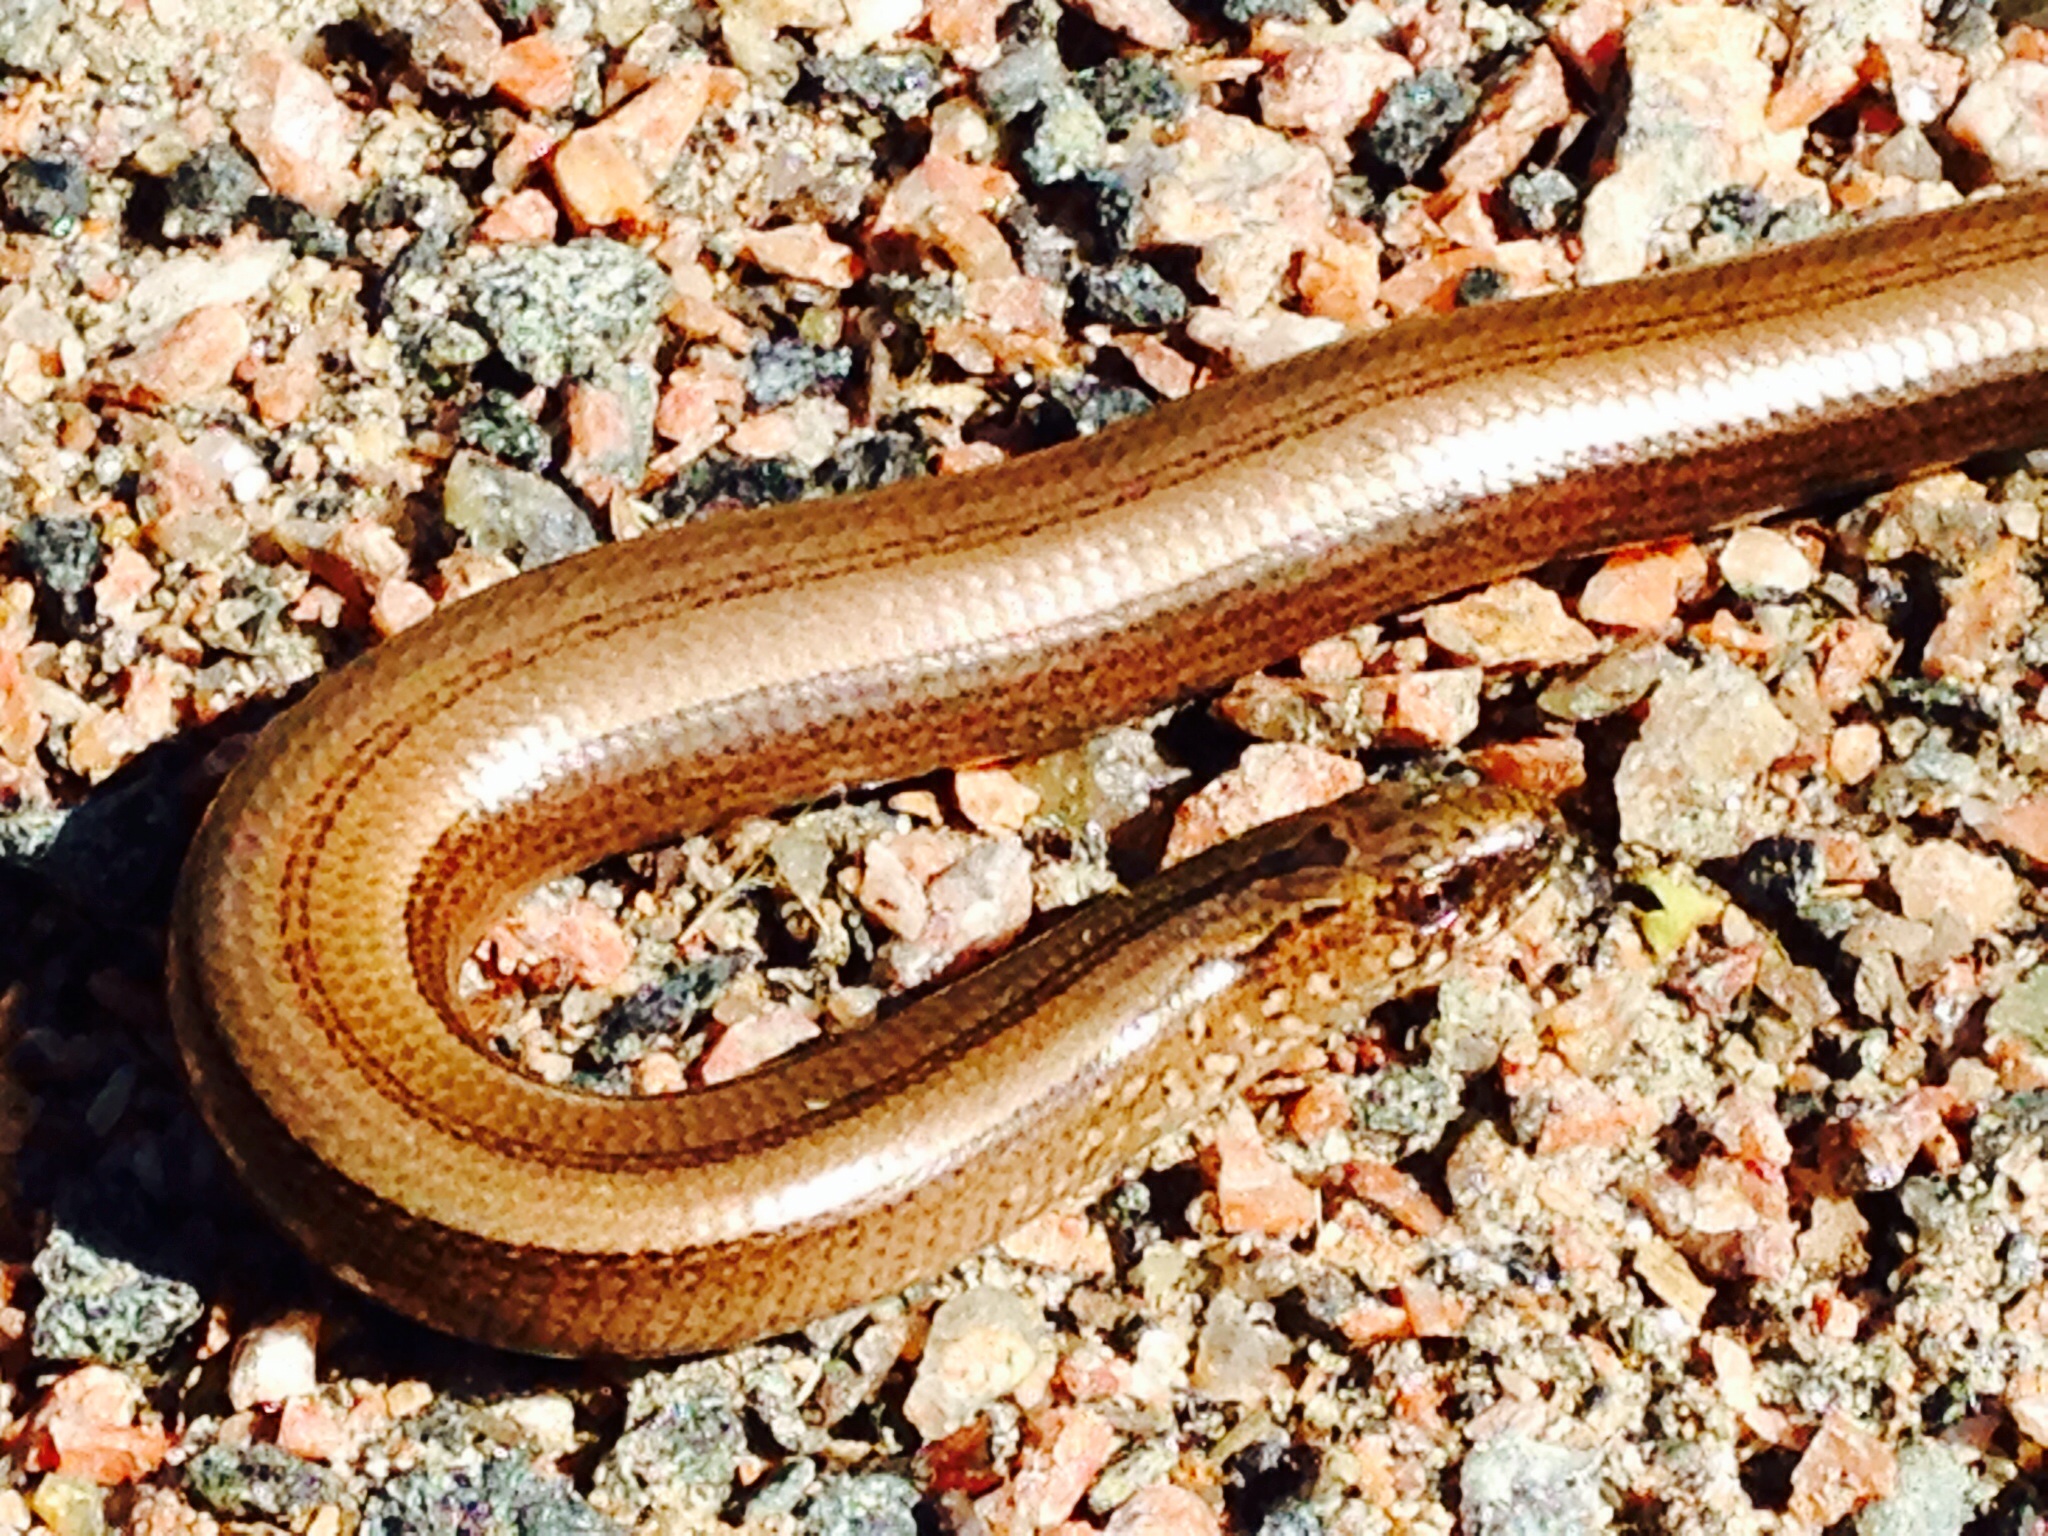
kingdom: Animalia
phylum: Chordata
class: Squamata
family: Anguidae
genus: Anguis
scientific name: Anguis colchica
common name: Slow worm
